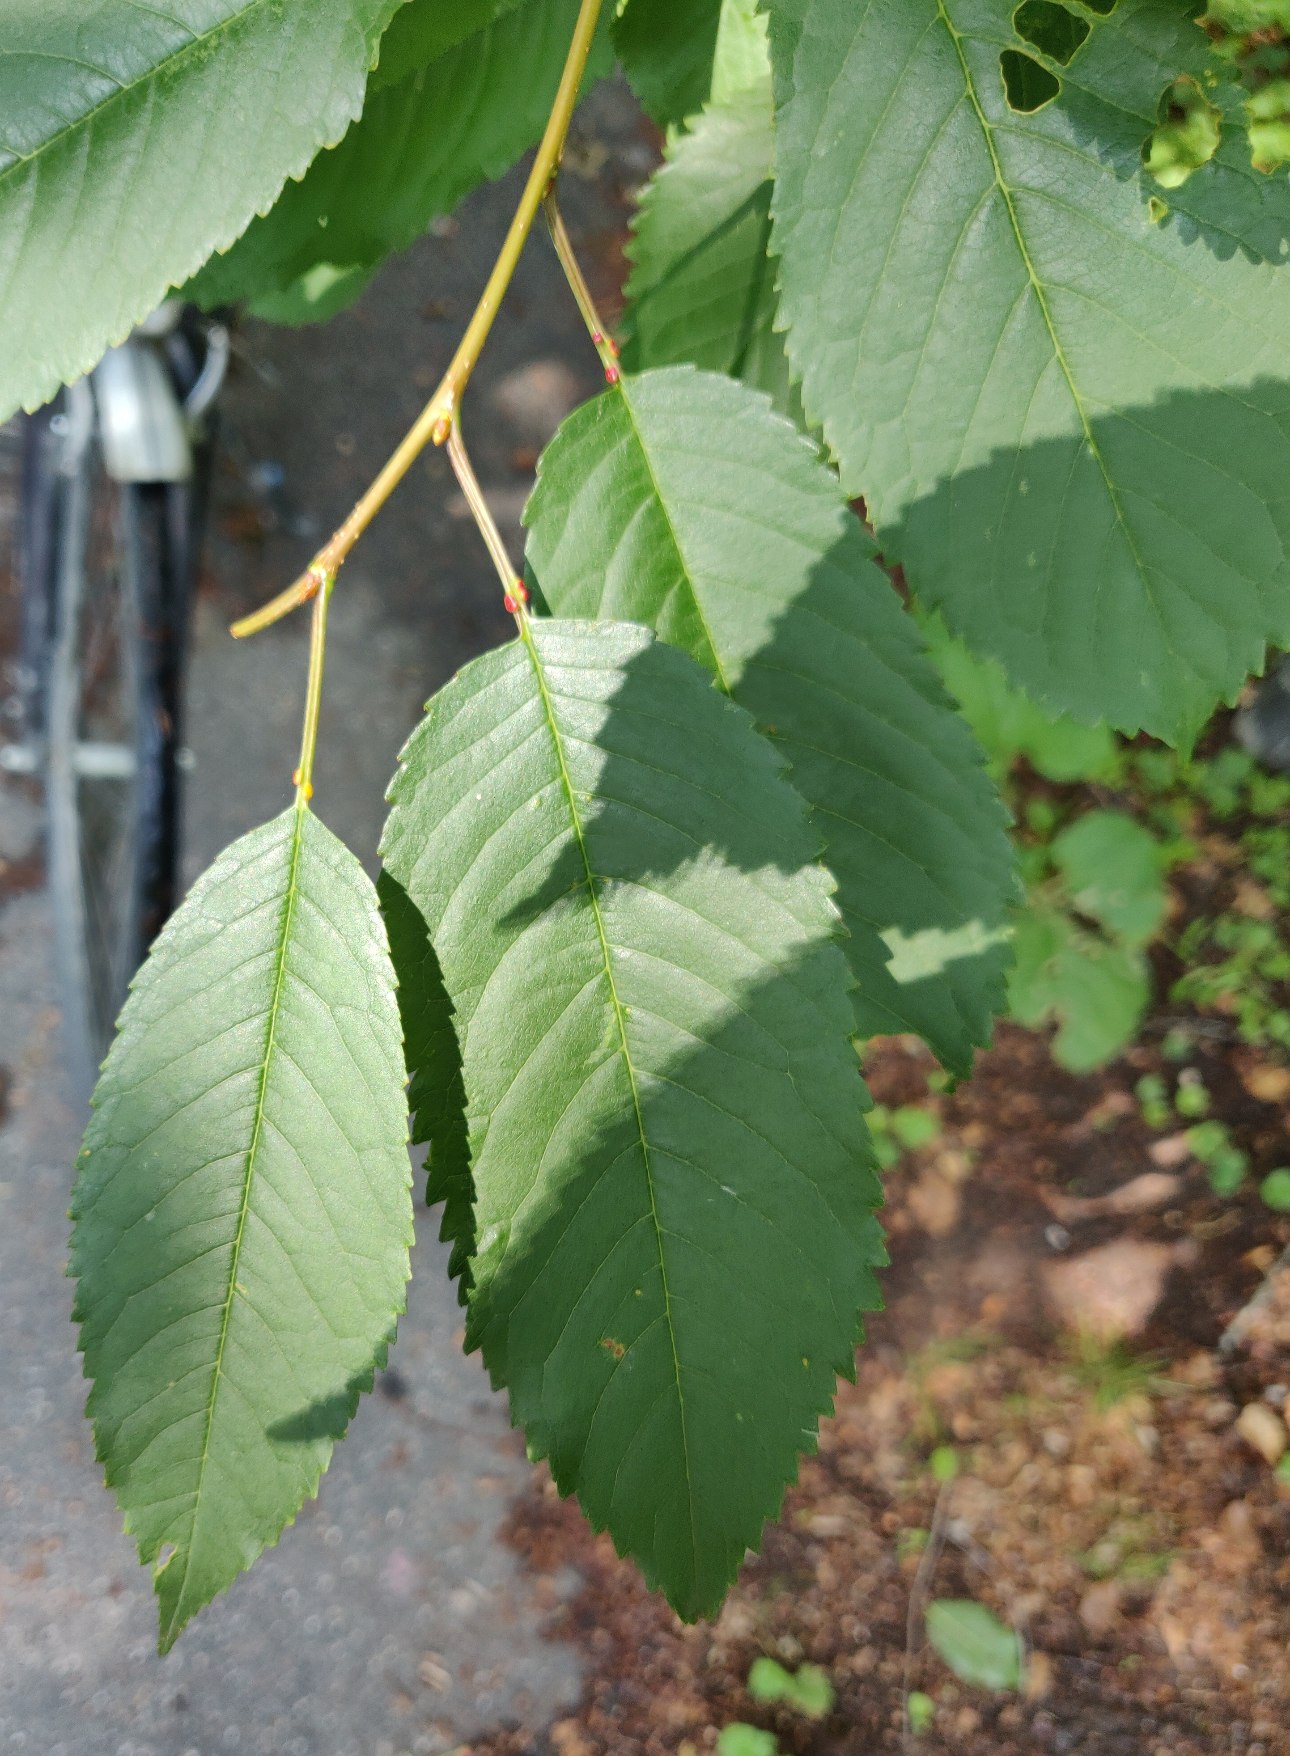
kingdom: Plantae
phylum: Tracheophyta
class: Magnoliopsida
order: Rosales
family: Rosaceae
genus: Prunus
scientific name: Prunus avium
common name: Fugle-kirsebær
